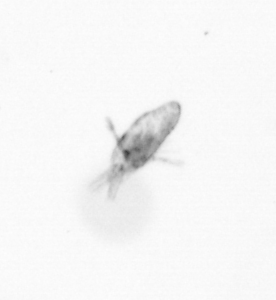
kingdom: Animalia
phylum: Arthropoda
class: Copepoda
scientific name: Copepoda
